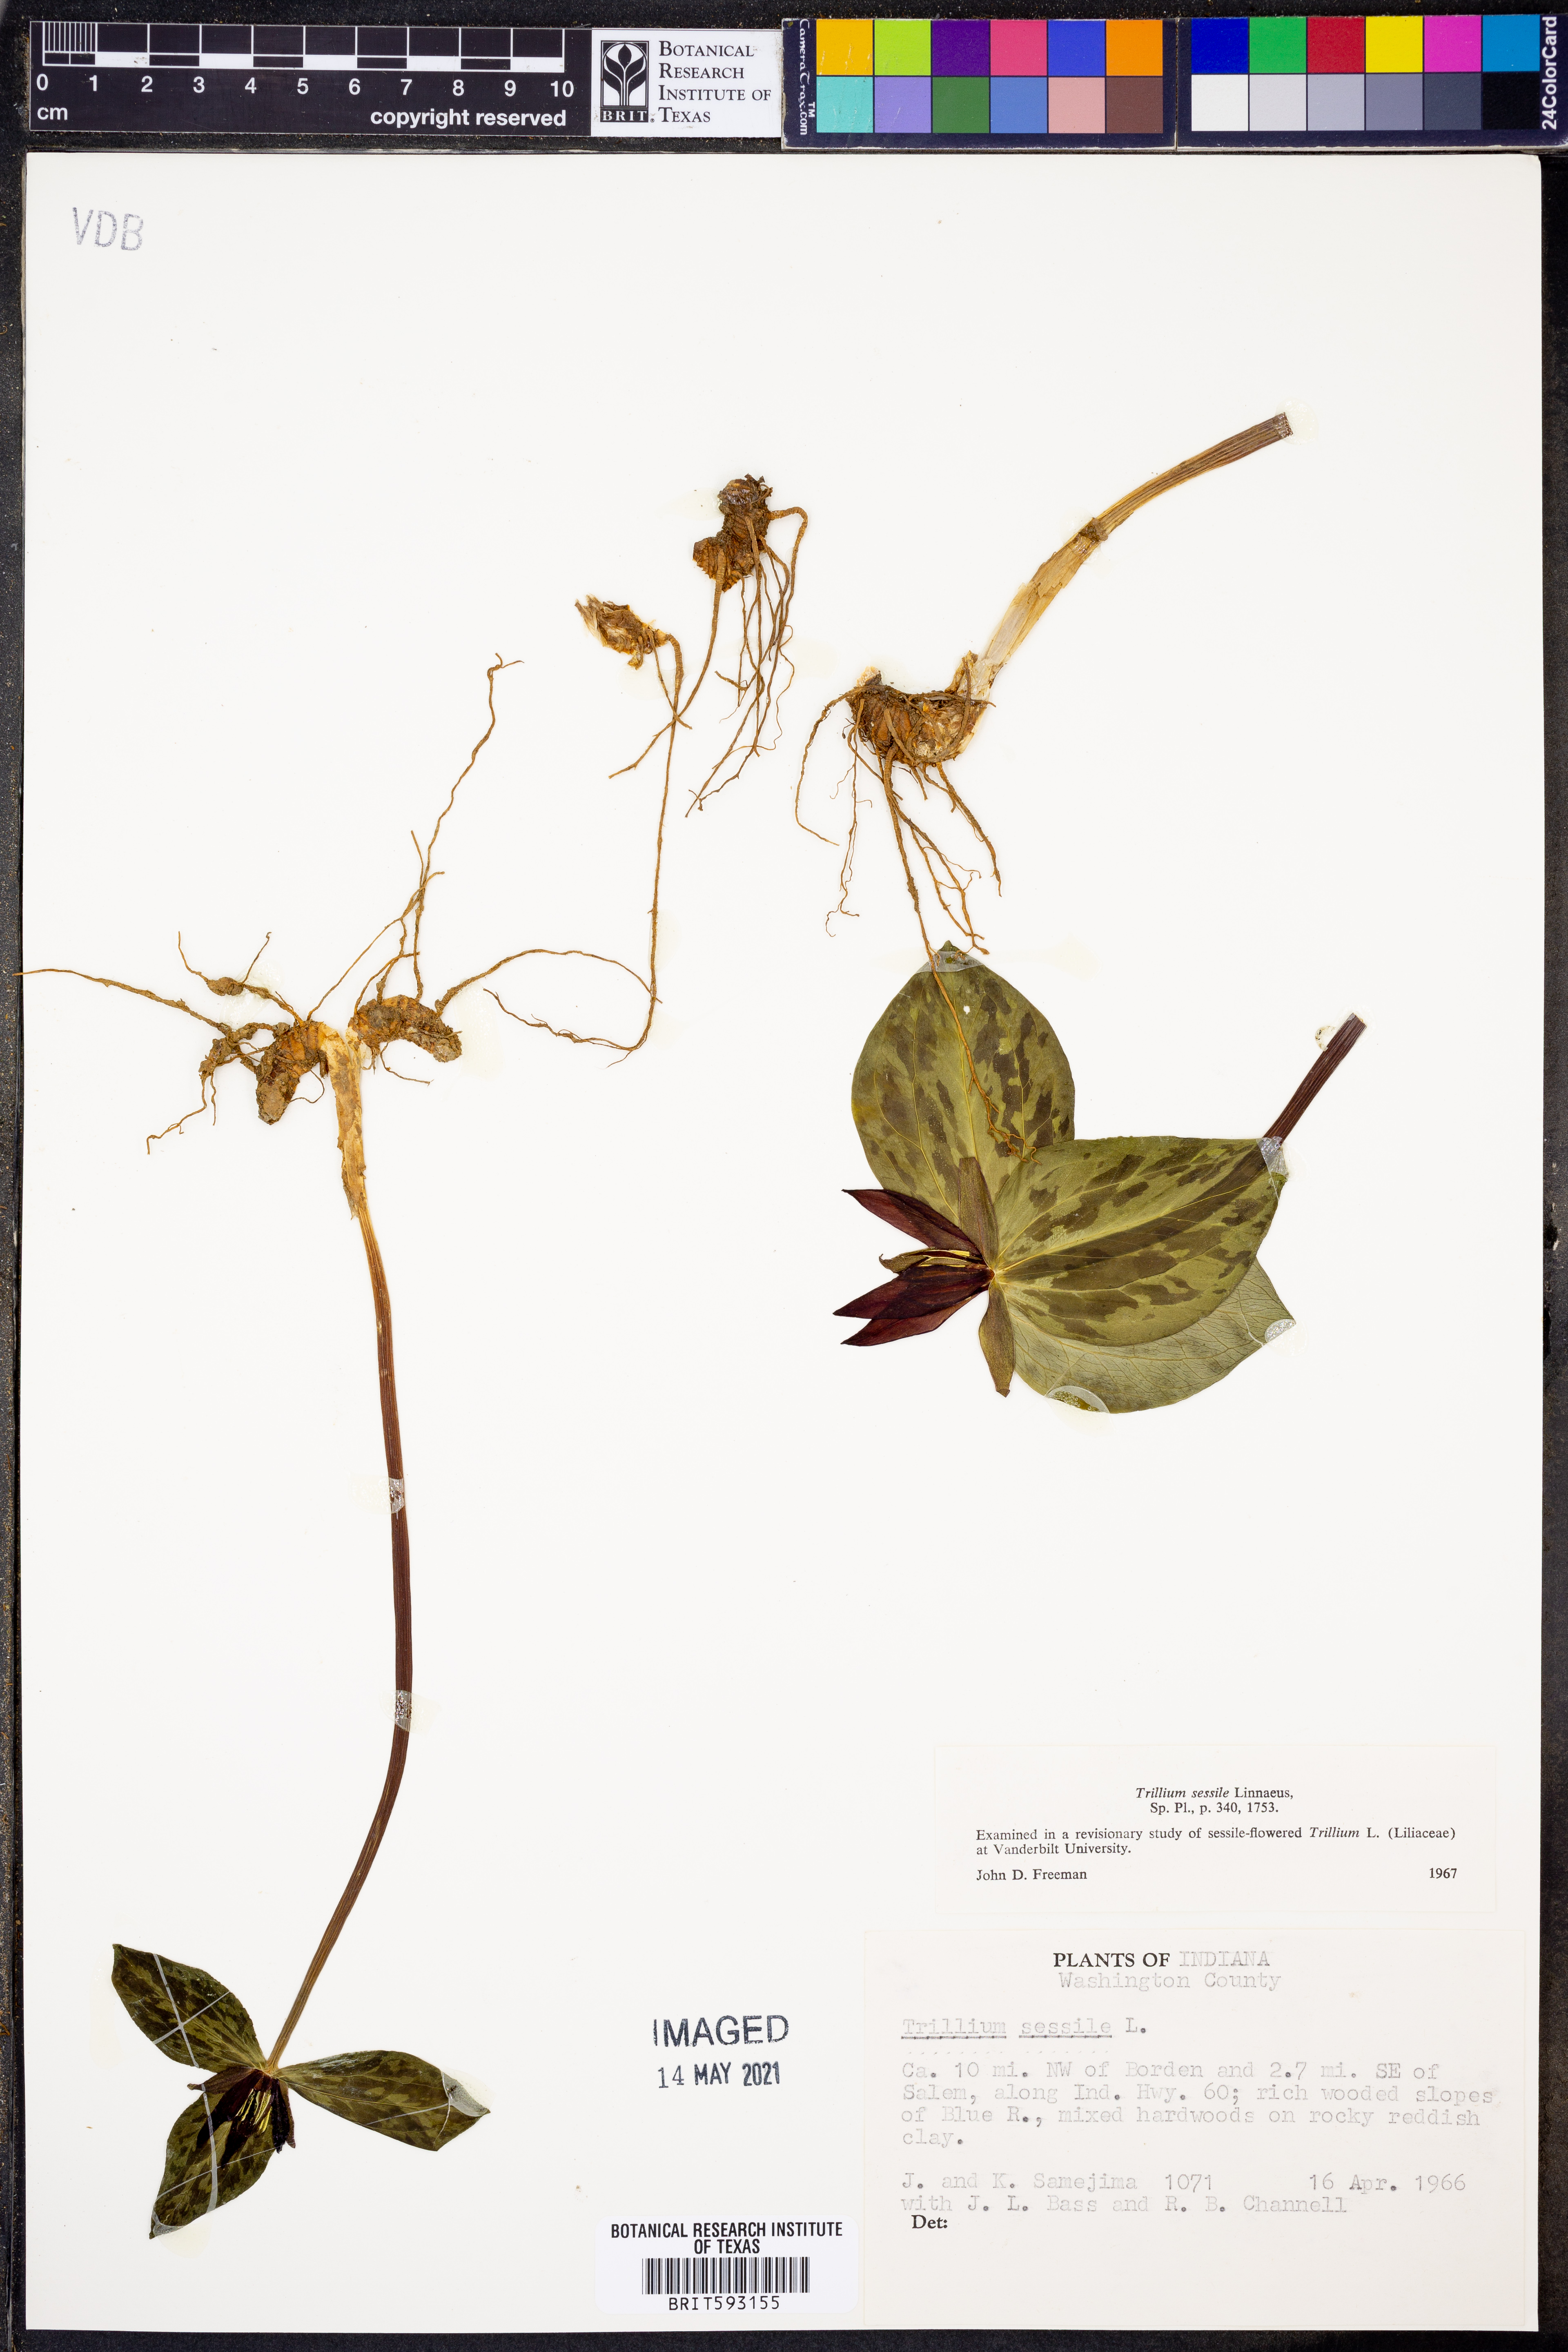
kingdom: Plantae
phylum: Tracheophyta
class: Liliopsida
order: Liliales
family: Melanthiaceae
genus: Trillium
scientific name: Trillium sessile
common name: Sessile trillium
